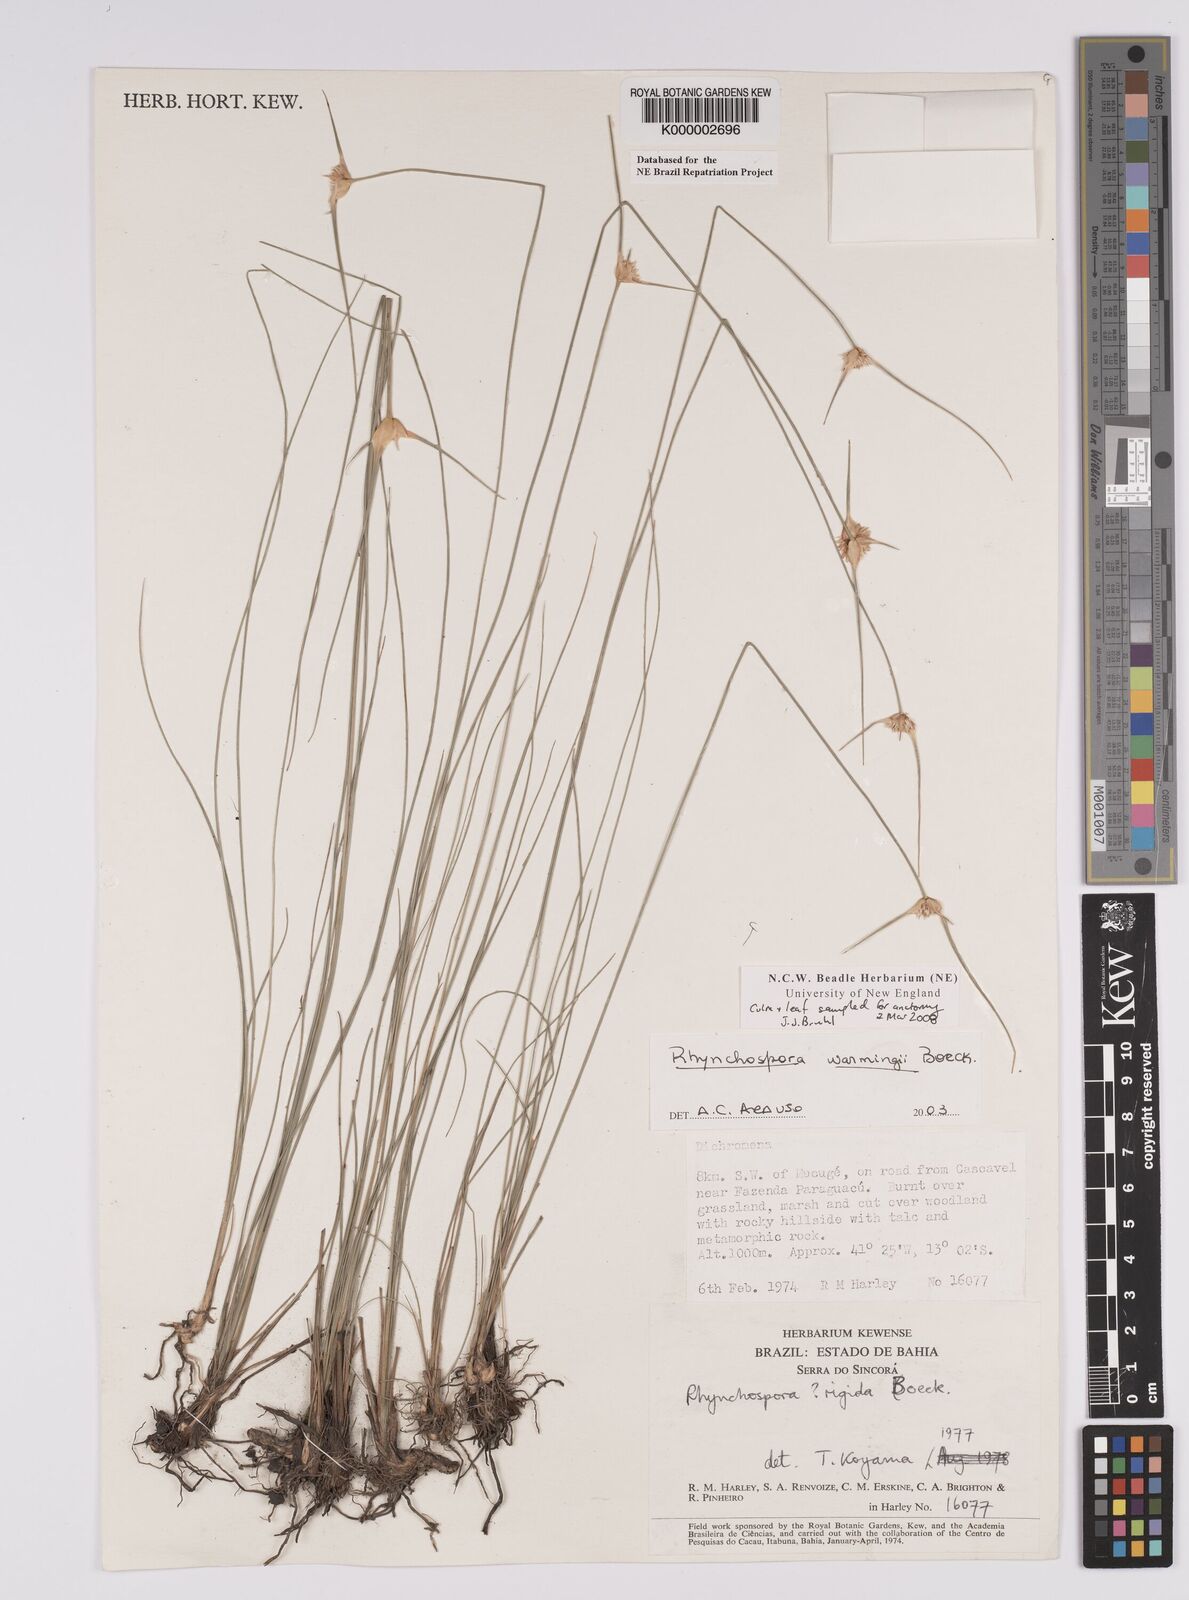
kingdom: Plantae
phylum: Tracheophyta
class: Liliopsida
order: Poales
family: Cyperaceae
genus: Rhynchospora
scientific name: Rhynchospora warmingii
